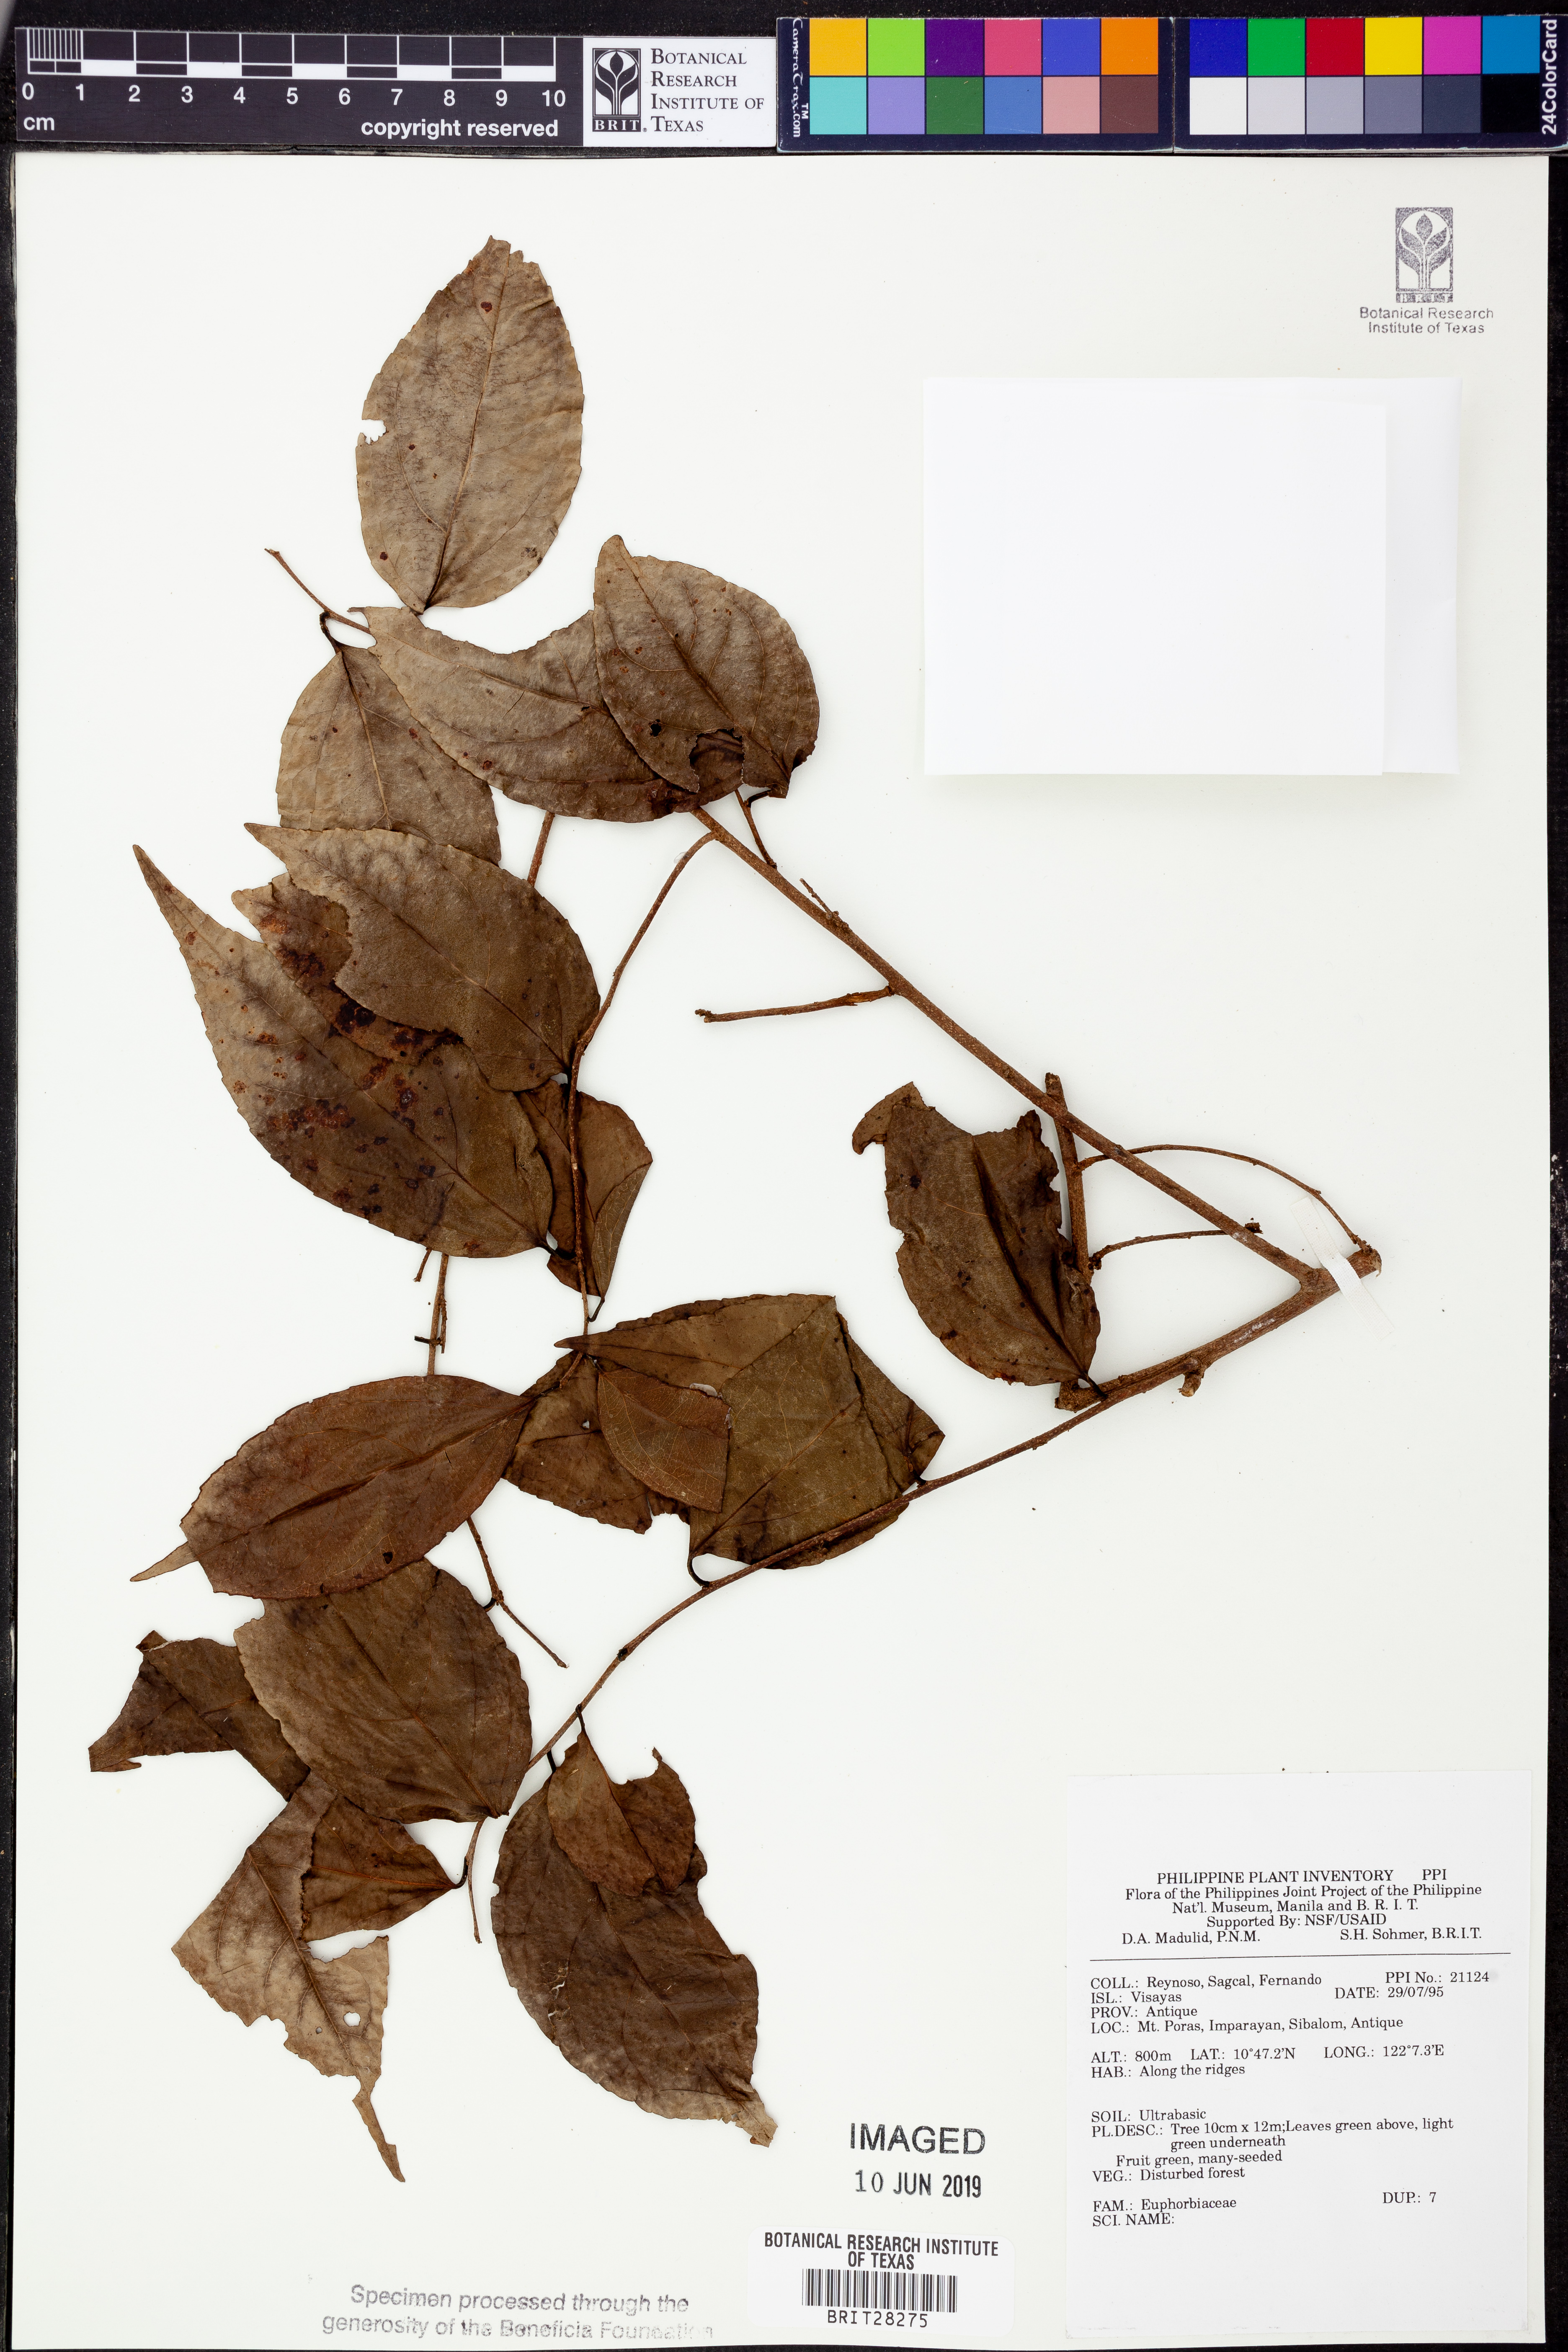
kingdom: Plantae
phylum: Tracheophyta
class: Magnoliopsida
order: Malpighiales
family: Euphorbiaceae
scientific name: Euphorbiaceae
